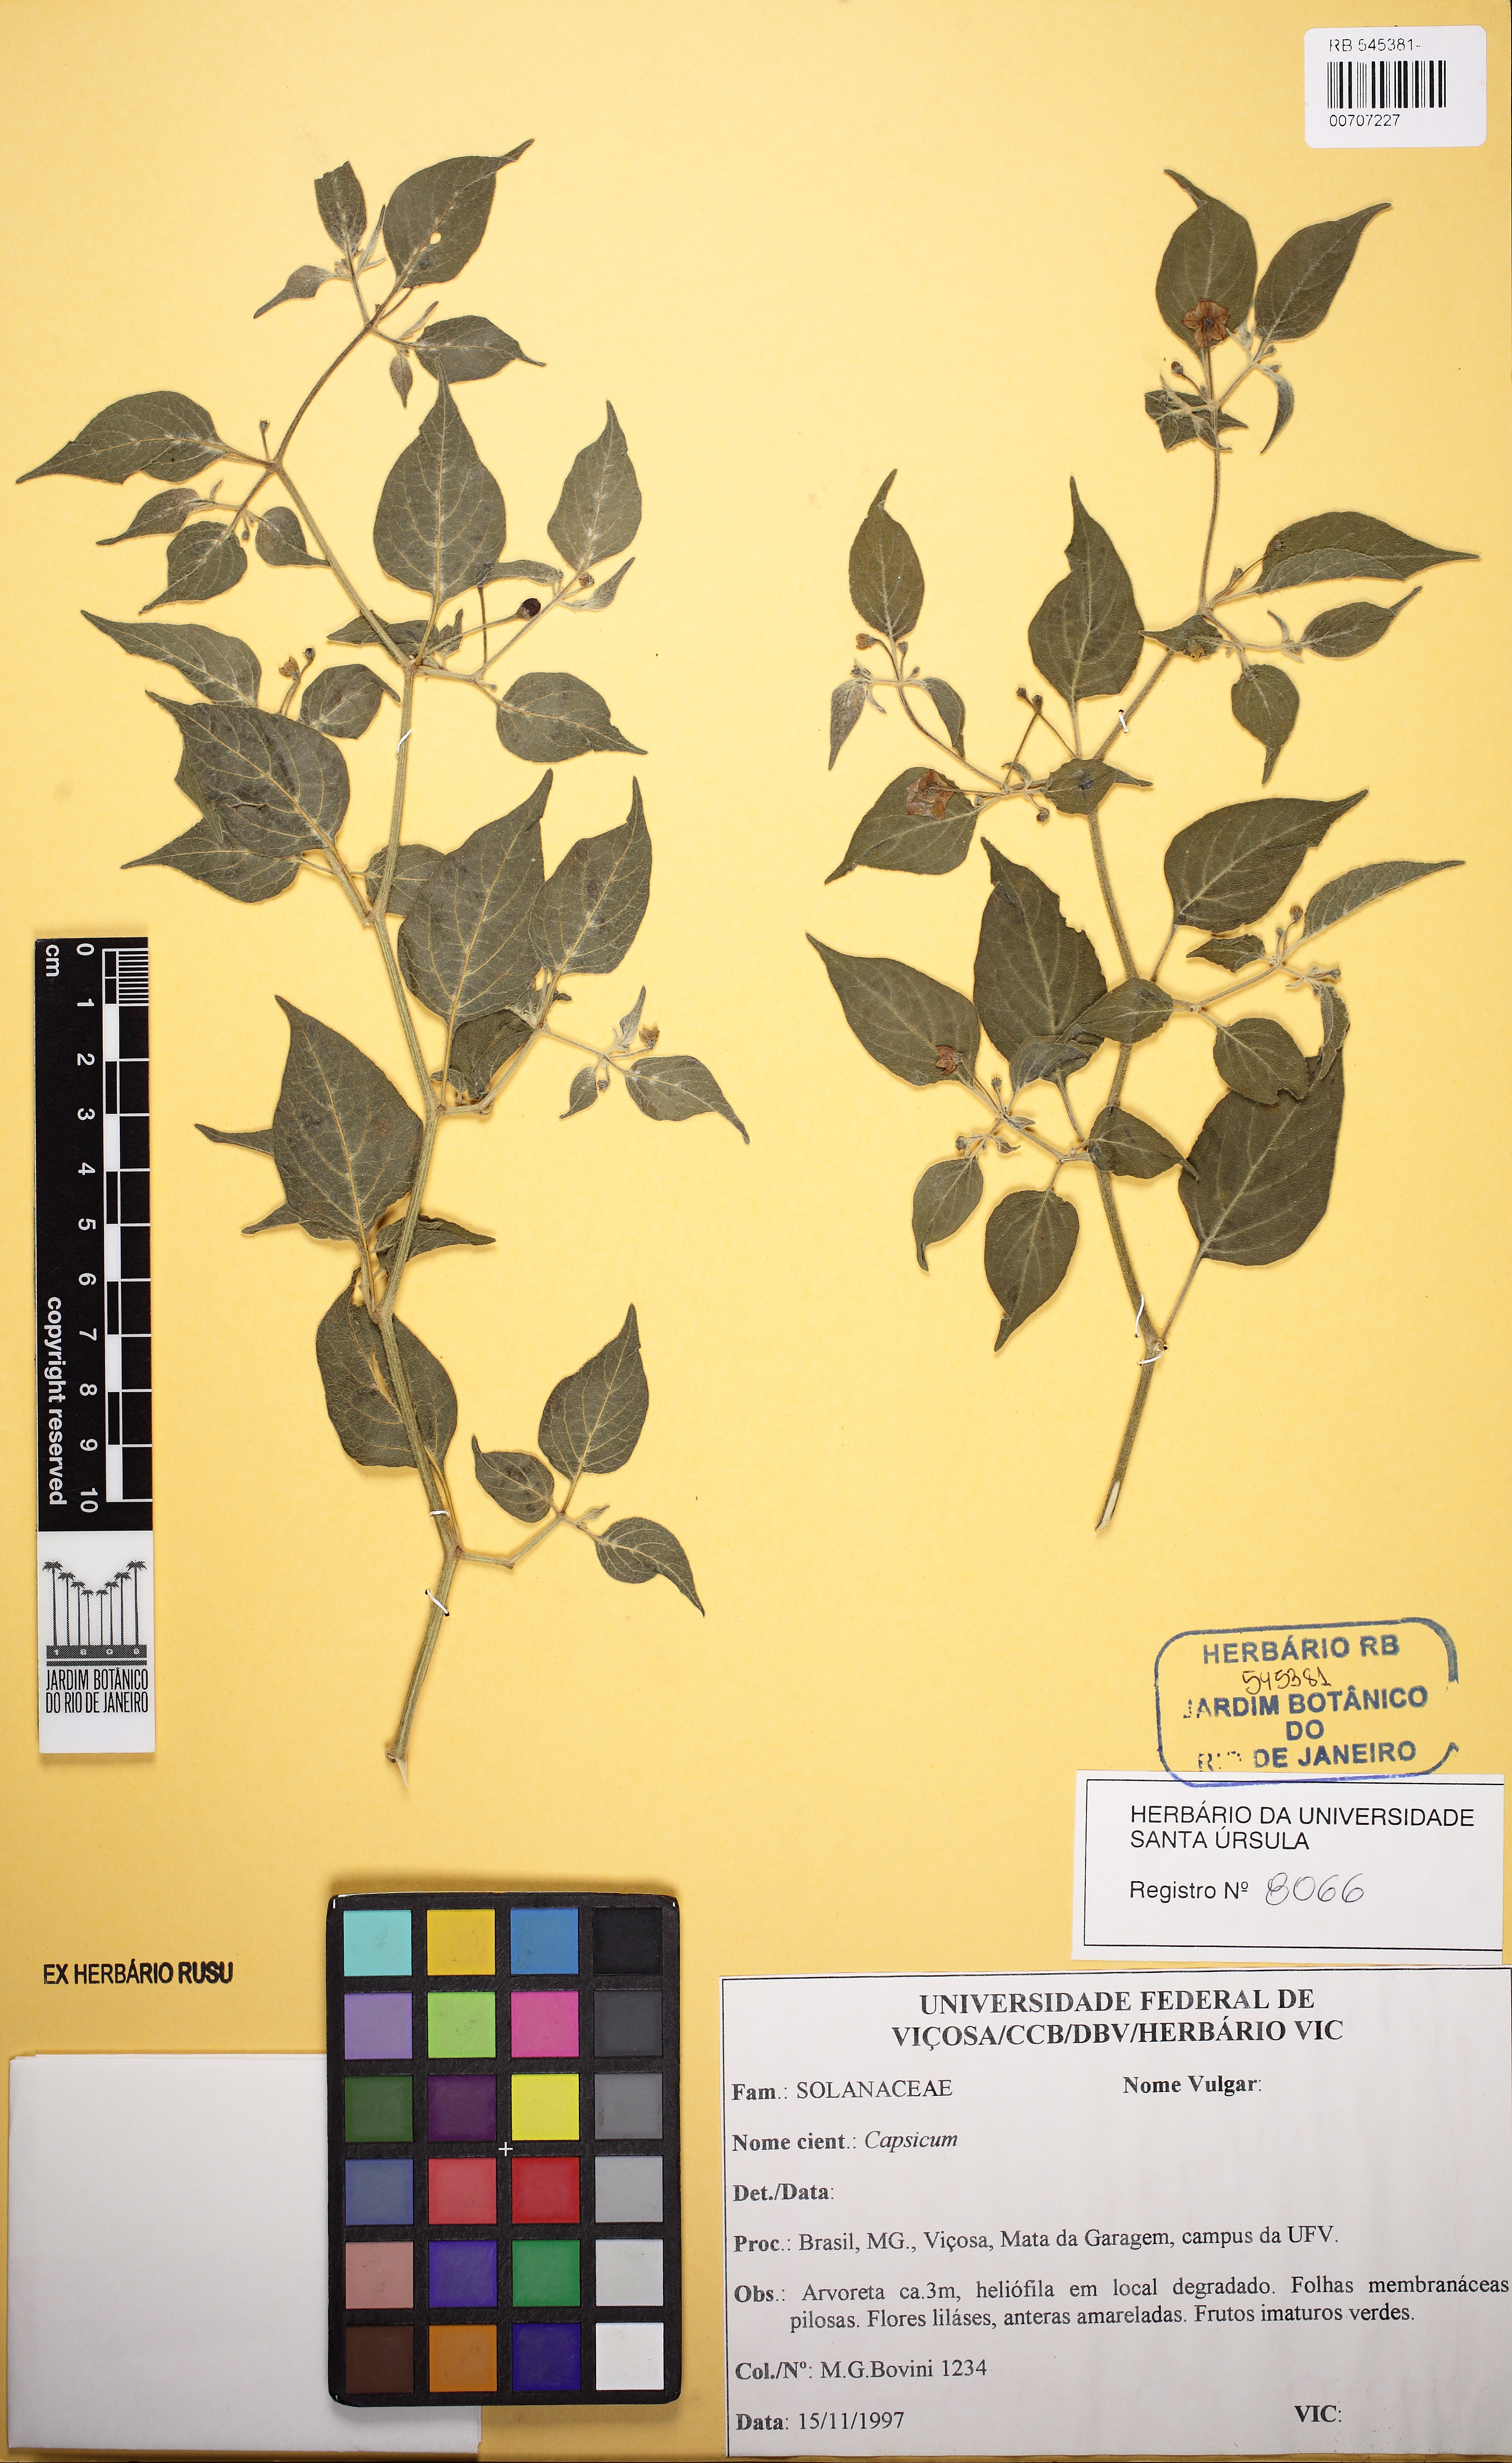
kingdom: Plantae
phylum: Tracheophyta
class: Magnoliopsida
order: Solanales
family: Solanaceae
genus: Capsicum
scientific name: Capsicum rabenii
